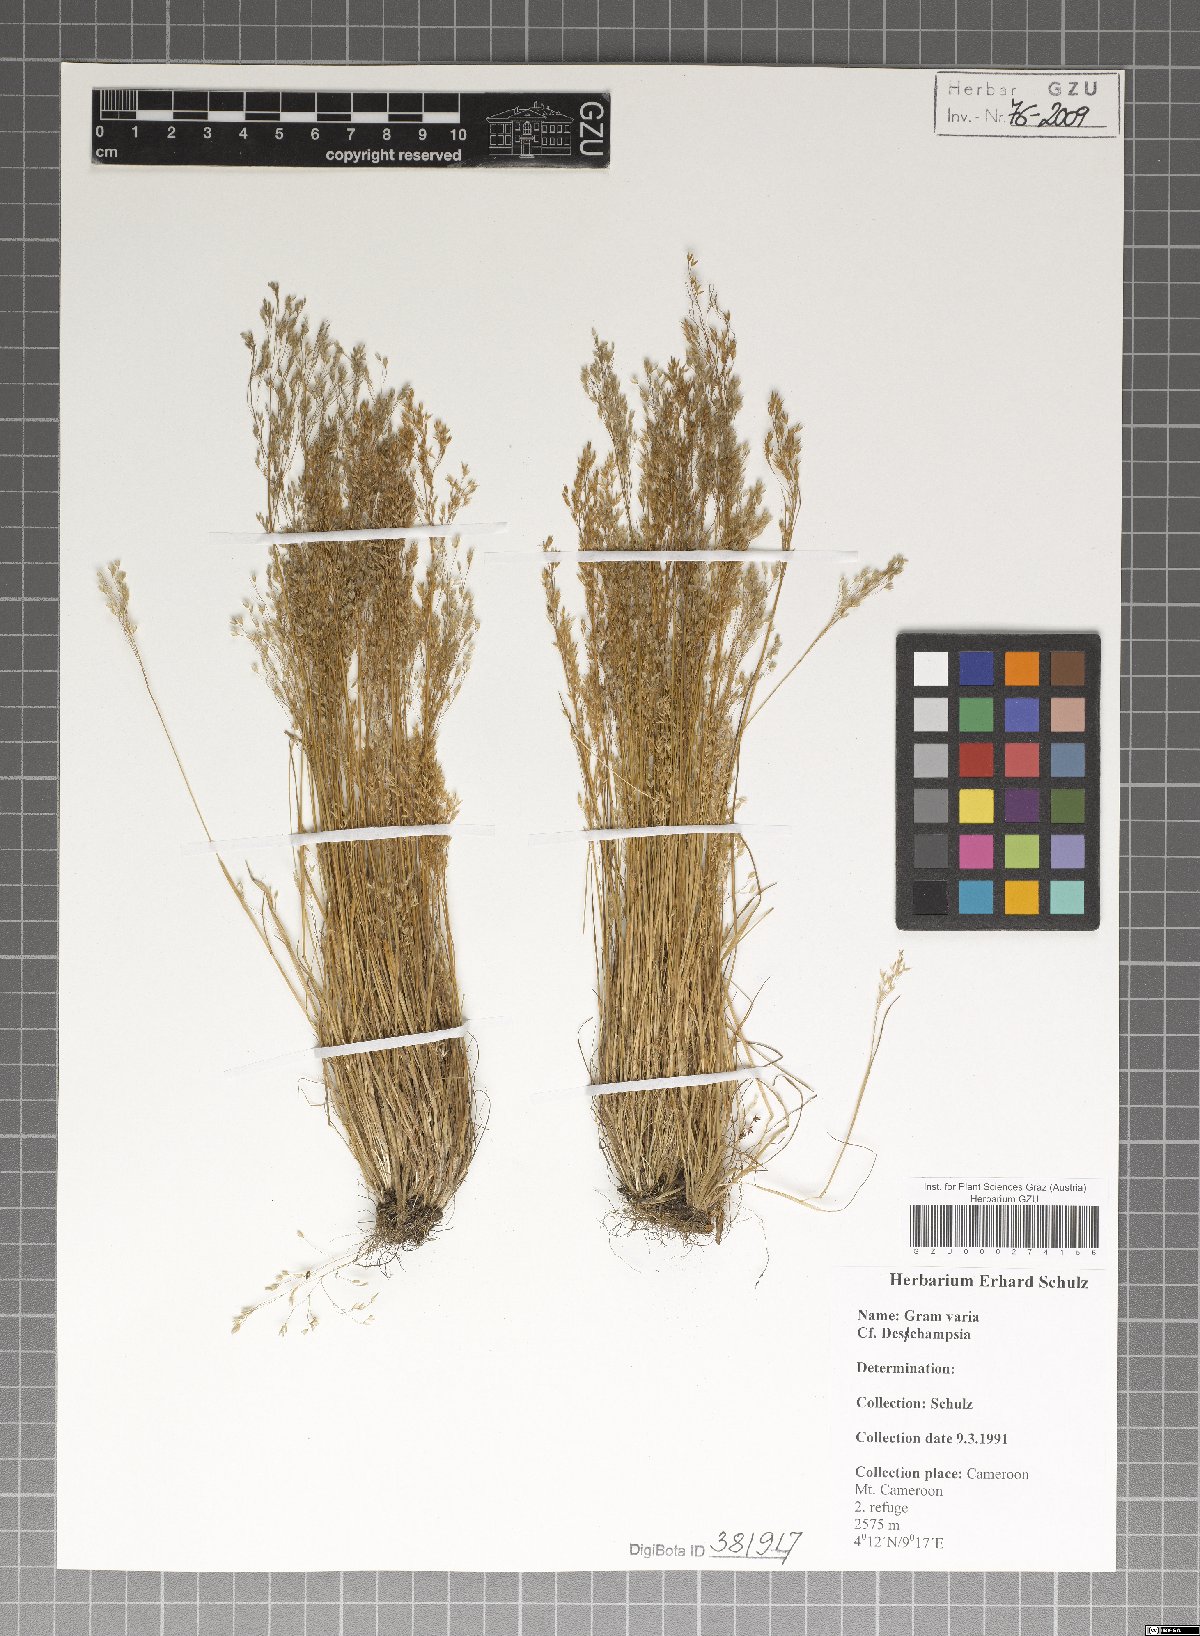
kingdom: Plantae
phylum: Tracheophyta
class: Liliopsida
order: Poales
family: Poaceae
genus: Deschampsia
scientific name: Deschampsia
